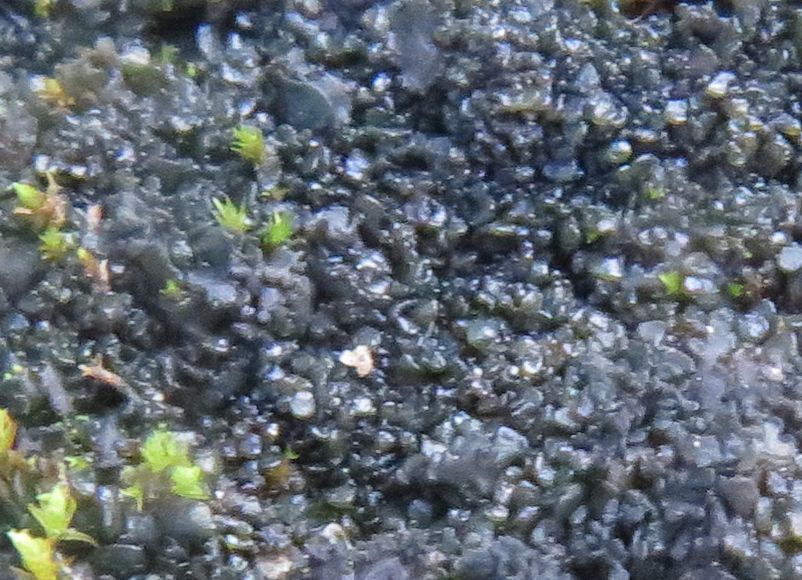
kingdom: Fungi
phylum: Ascomycota
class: Lecanoromycetes
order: Peltigerales
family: Collemataceae
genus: Blennothallia
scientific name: Blennothallia crispa
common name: kruset bævrelav
